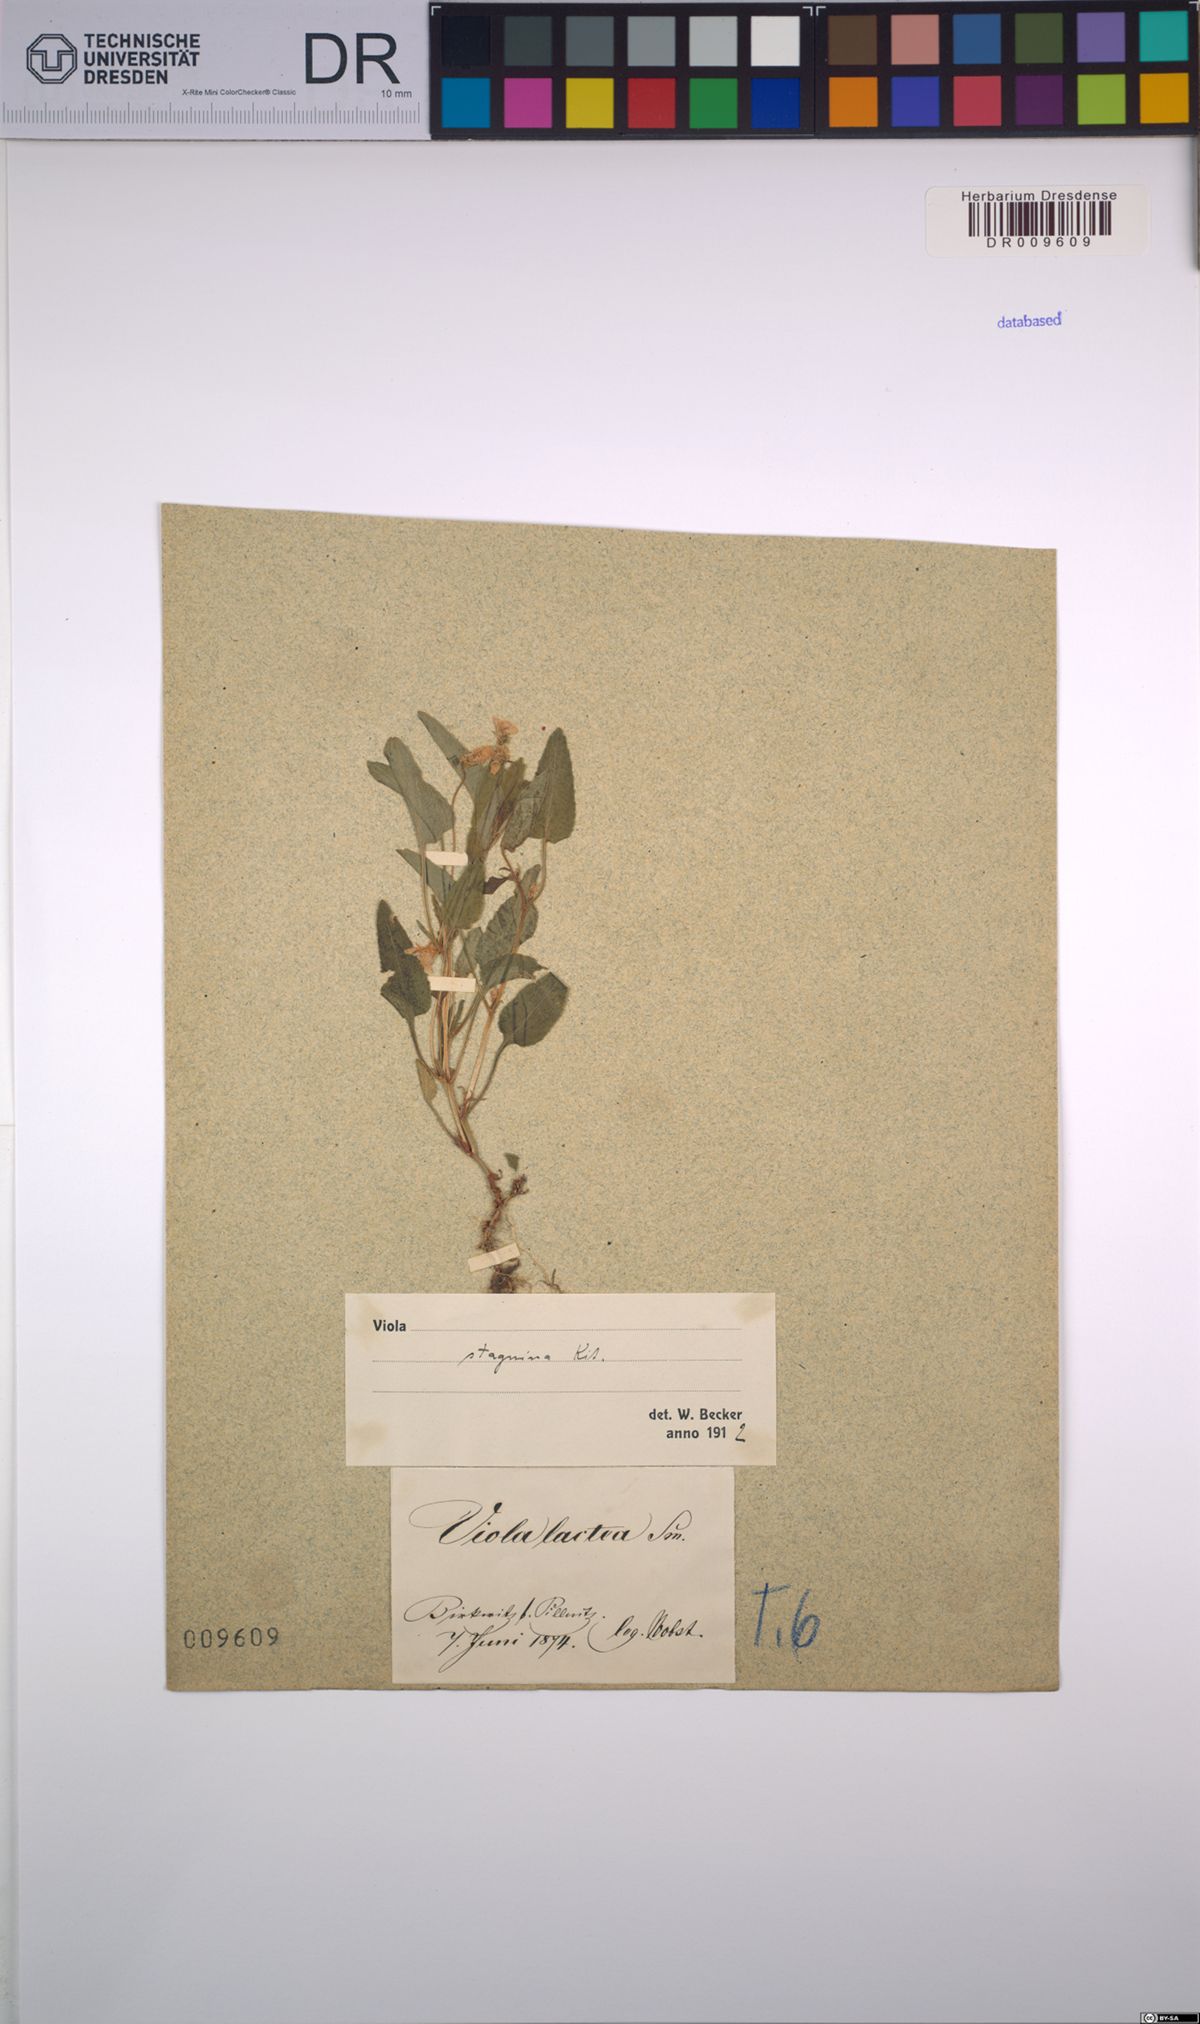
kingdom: Plantae
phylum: Tracheophyta
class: Magnoliopsida
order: Malpighiales
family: Violaceae
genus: Viola
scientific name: Viola stagnina
